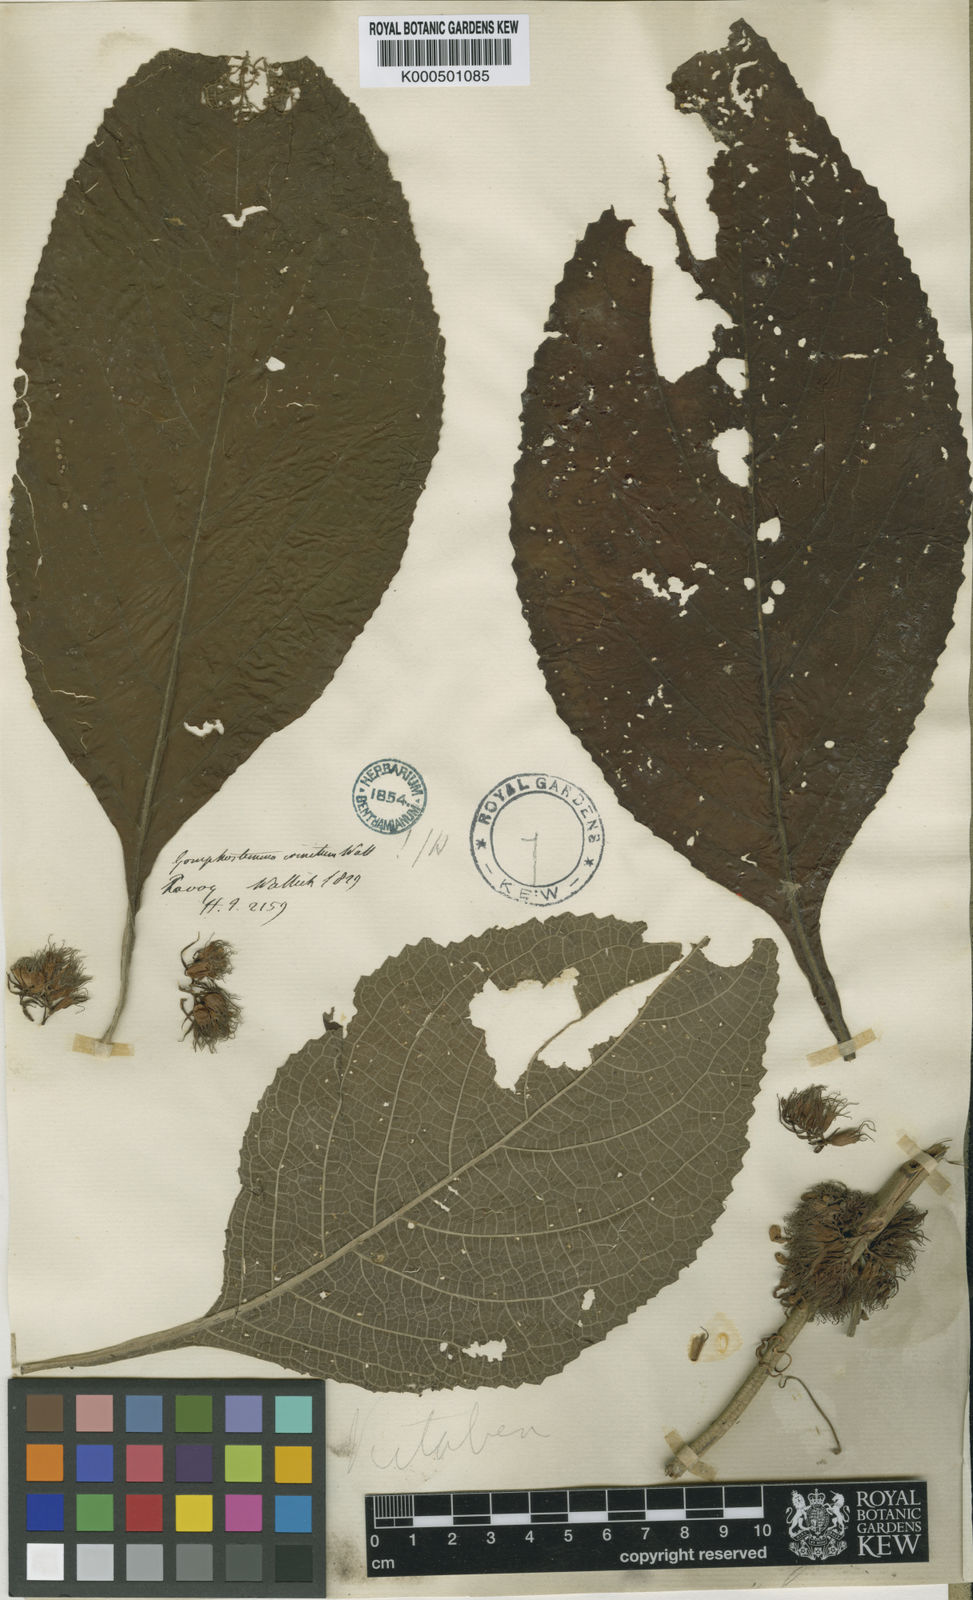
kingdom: Plantae
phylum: Tracheophyta
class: Magnoliopsida
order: Lamiales
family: Lamiaceae
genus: Gomphostemma
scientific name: Gomphostemma crinitum
